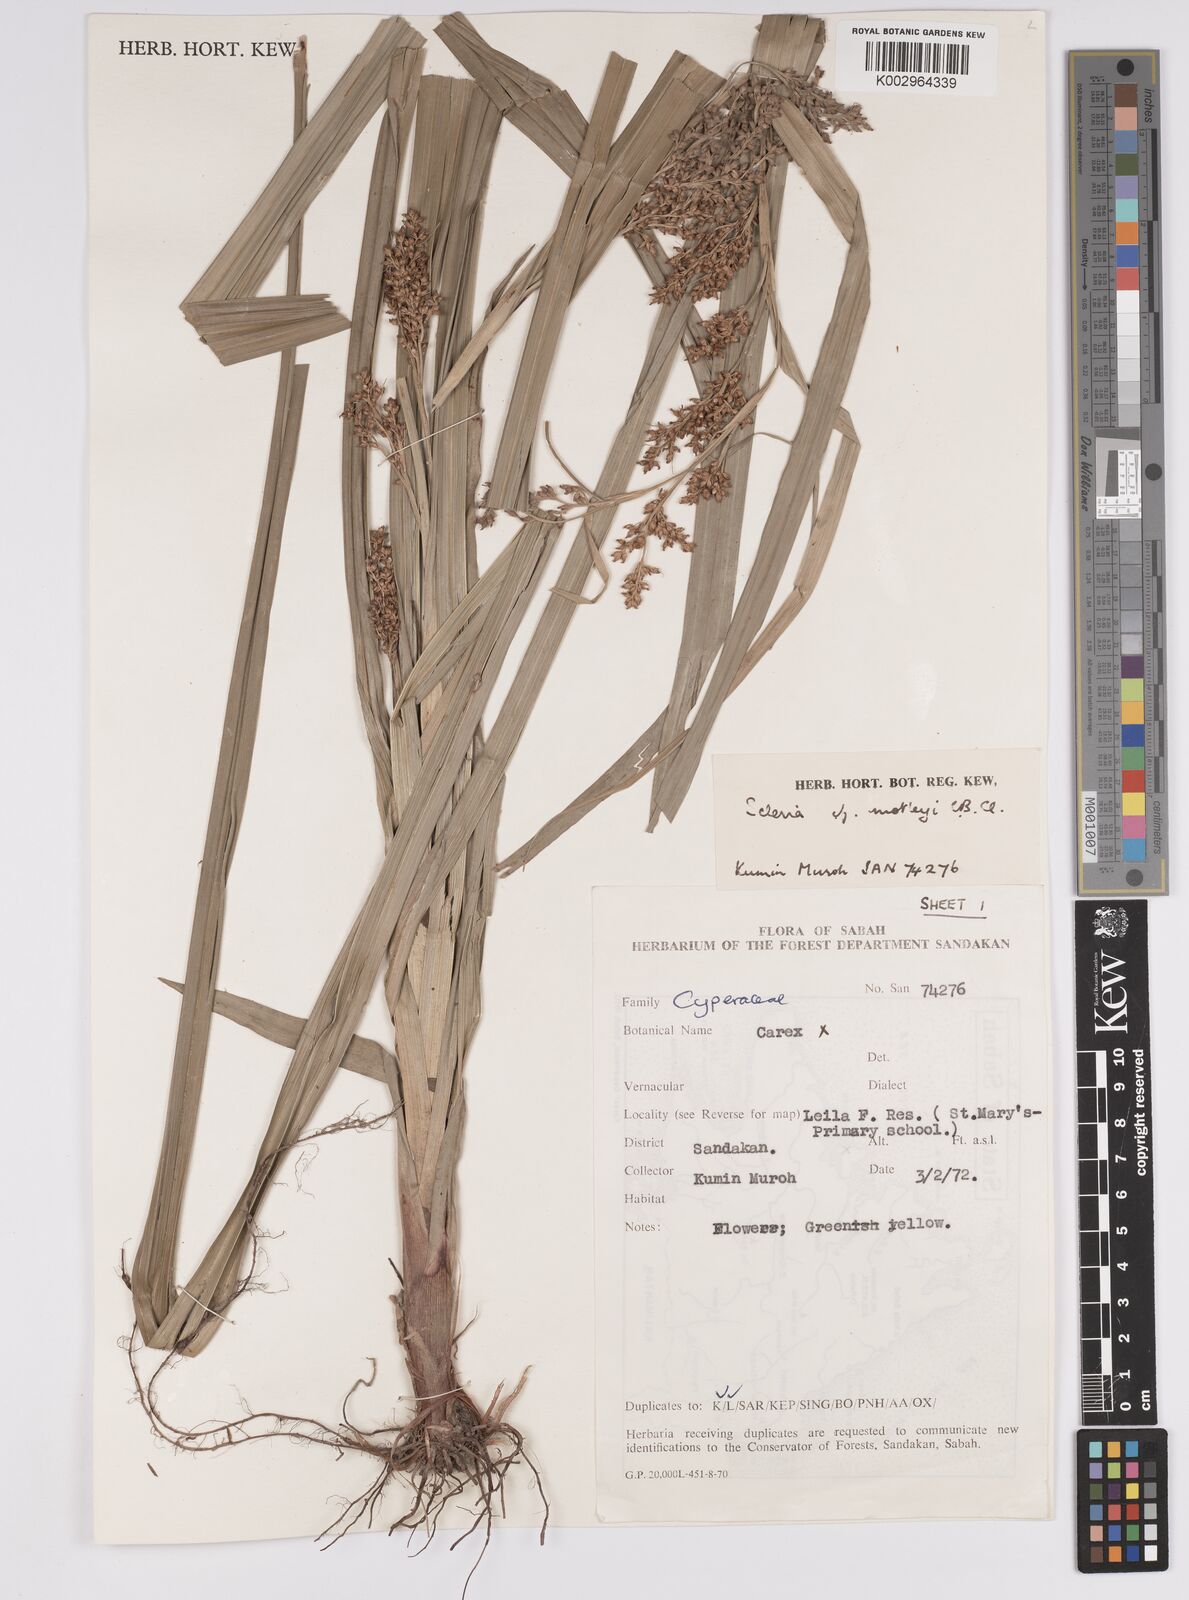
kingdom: Plantae
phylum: Tracheophyta
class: Liliopsida
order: Poales
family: Cyperaceae
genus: Scleria
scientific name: Scleria motleyi
